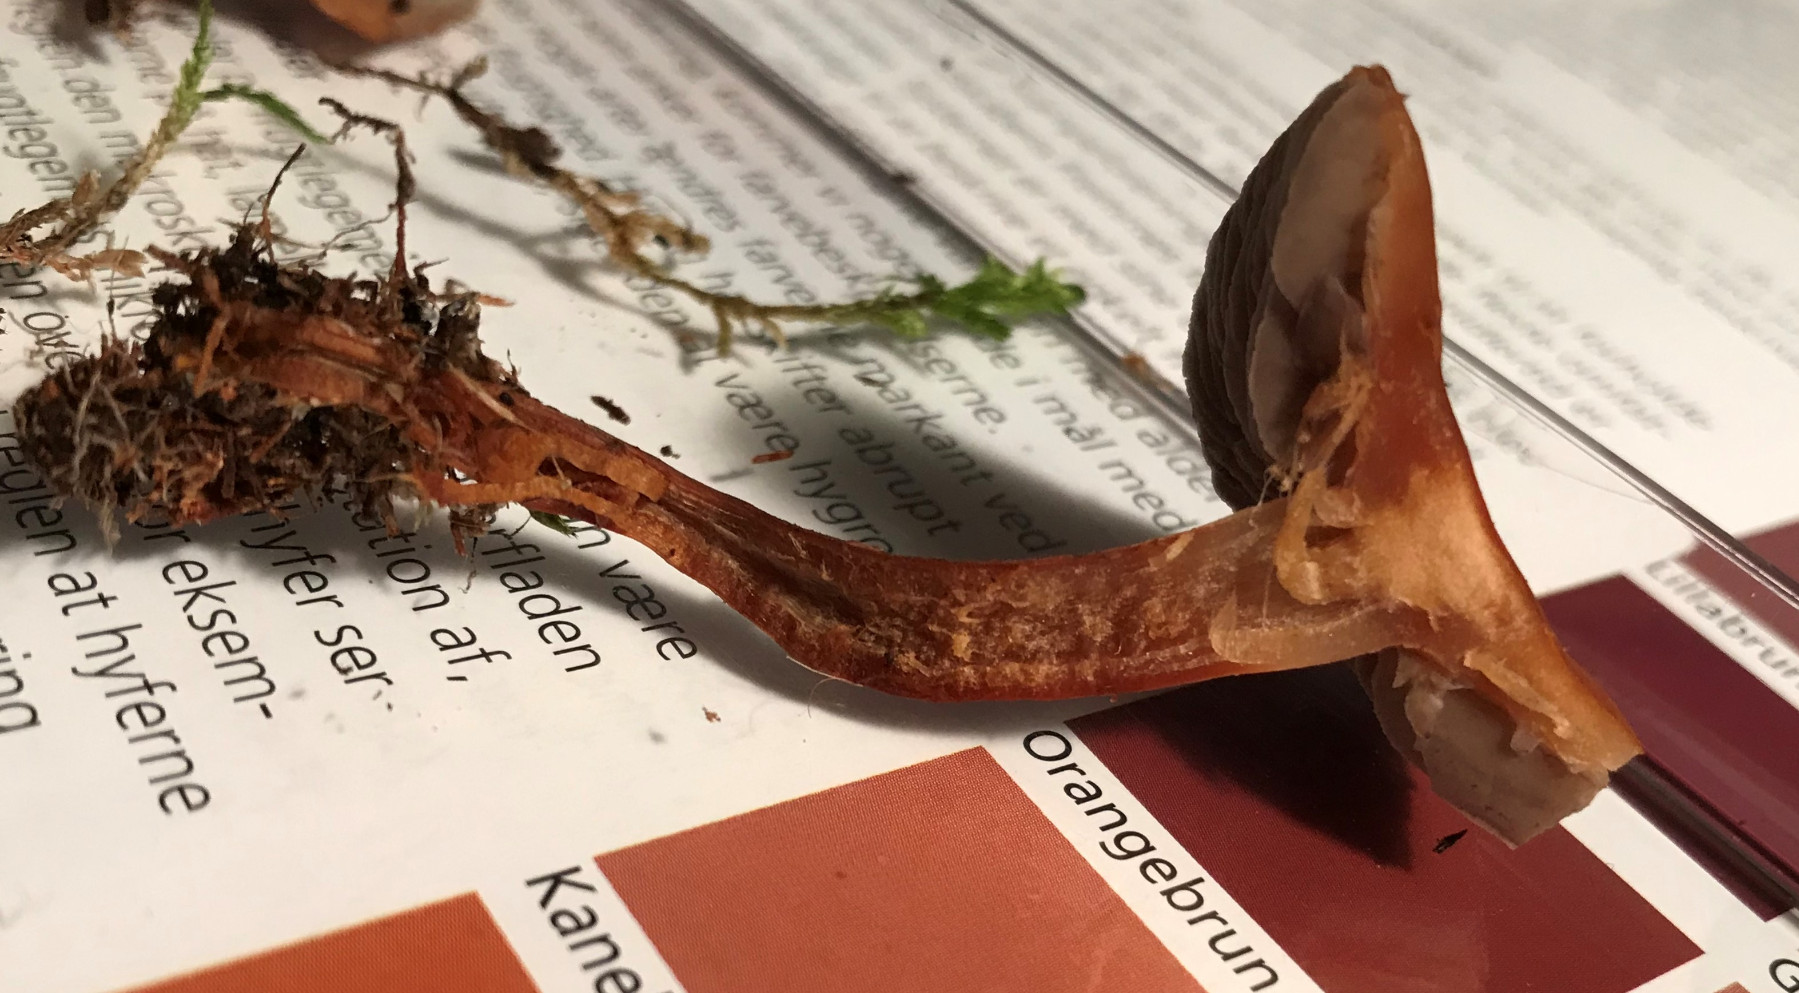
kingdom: Fungi
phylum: Basidiomycota
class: Agaricomycetes
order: Agaricales
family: Strophariaceae
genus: Hypholoma
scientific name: Hypholoma subericaeum
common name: eng-svovlhat
